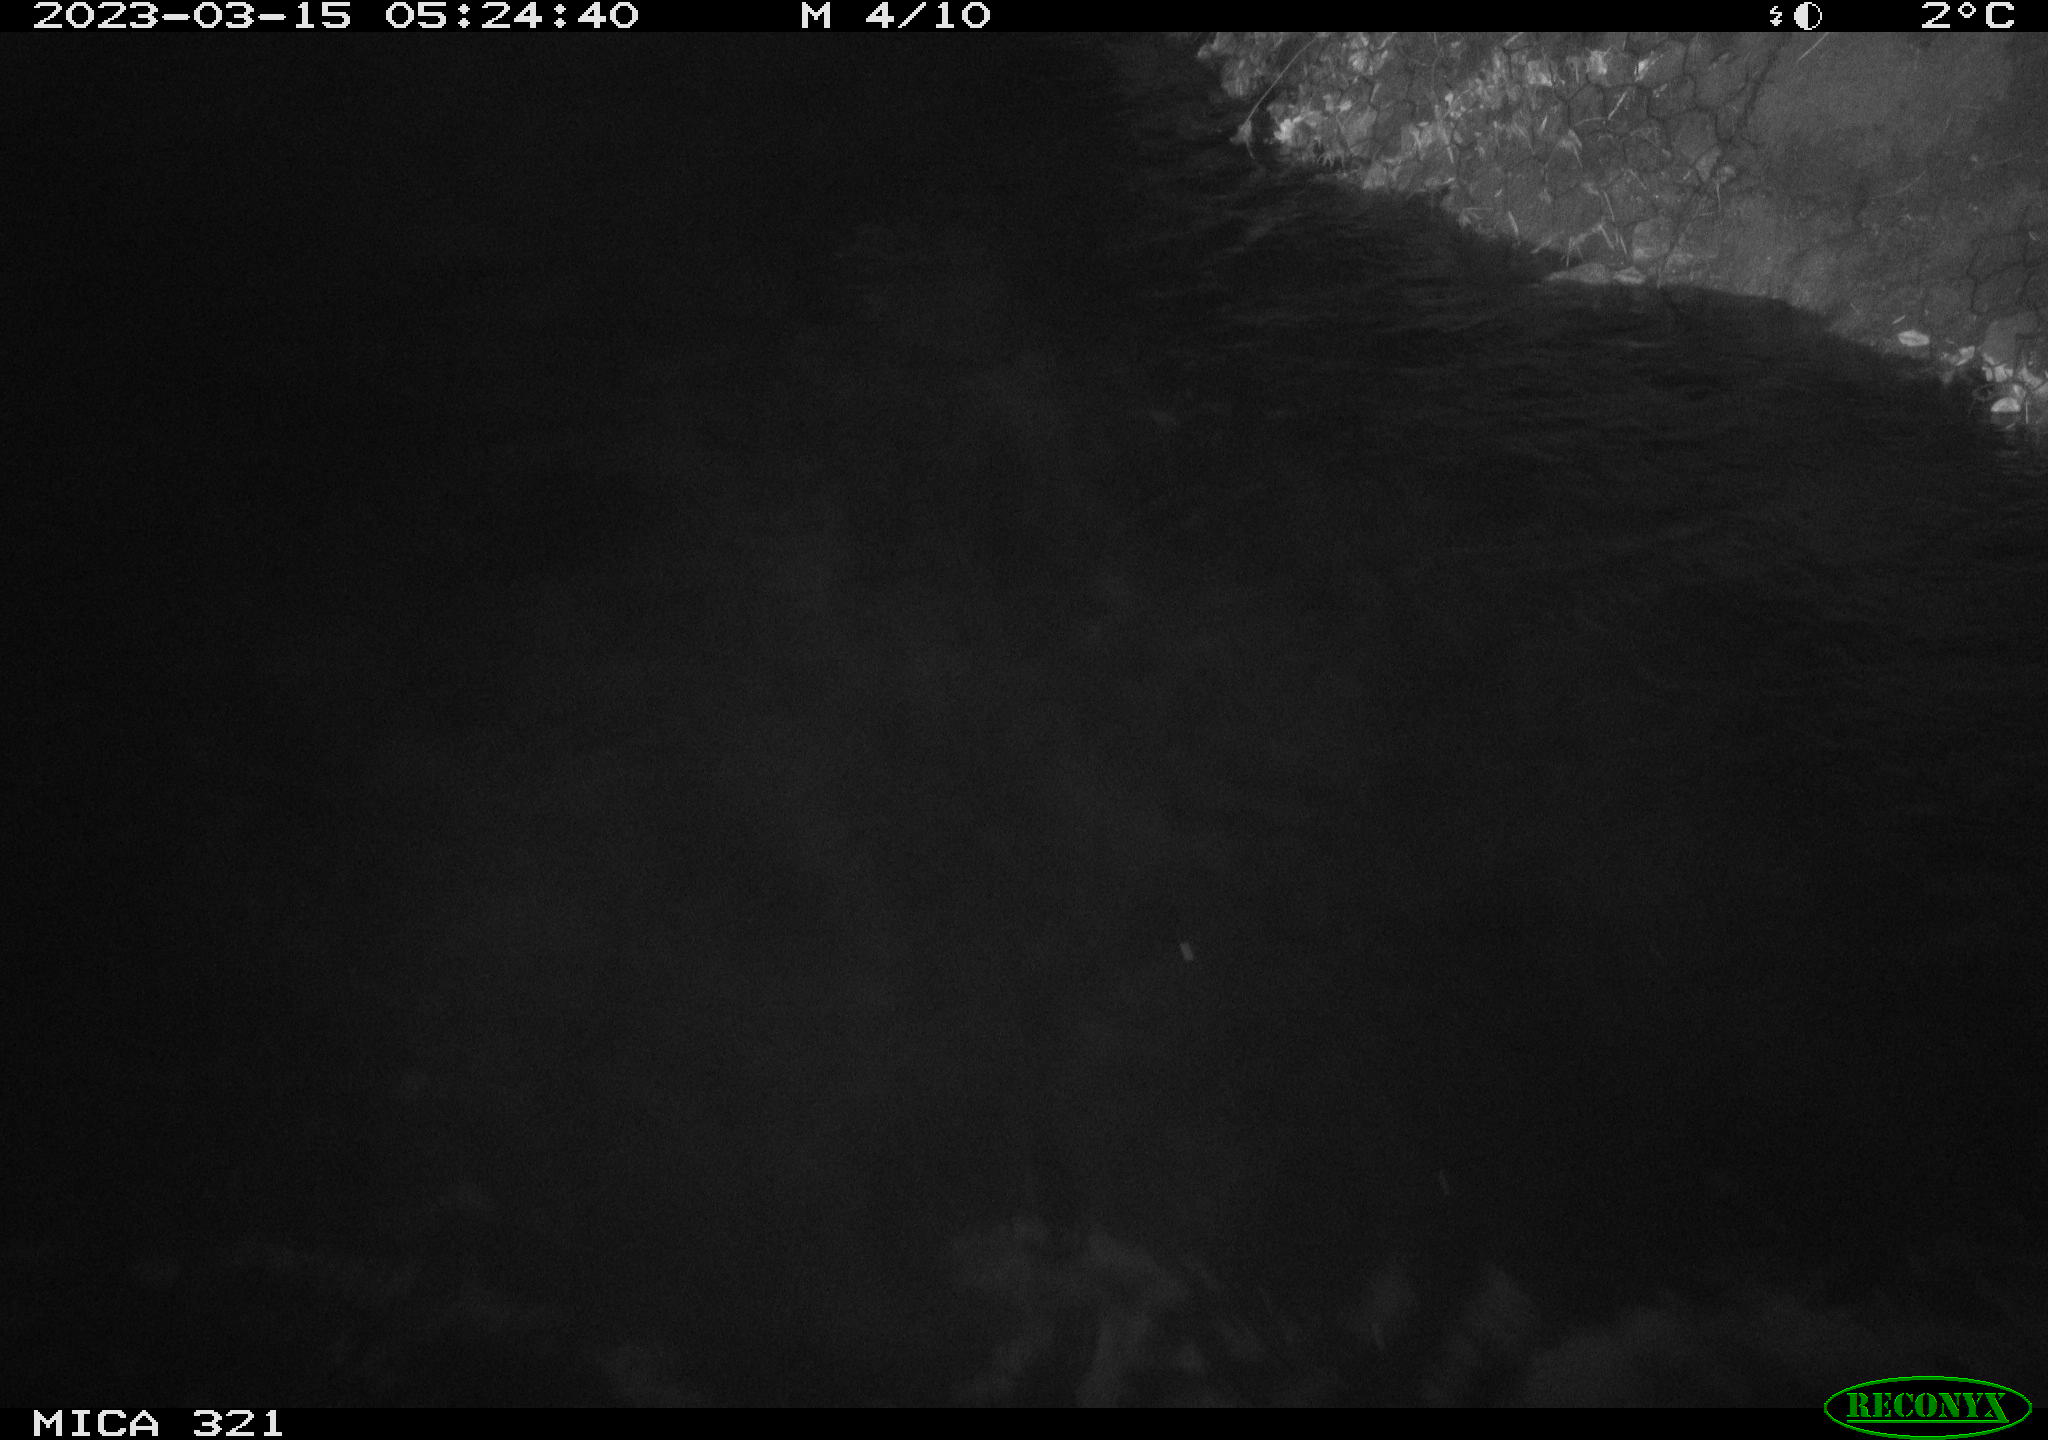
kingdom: Animalia
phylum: Chordata
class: Aves
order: Anseriformes
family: Anatidae
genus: Anas
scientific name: Anas
